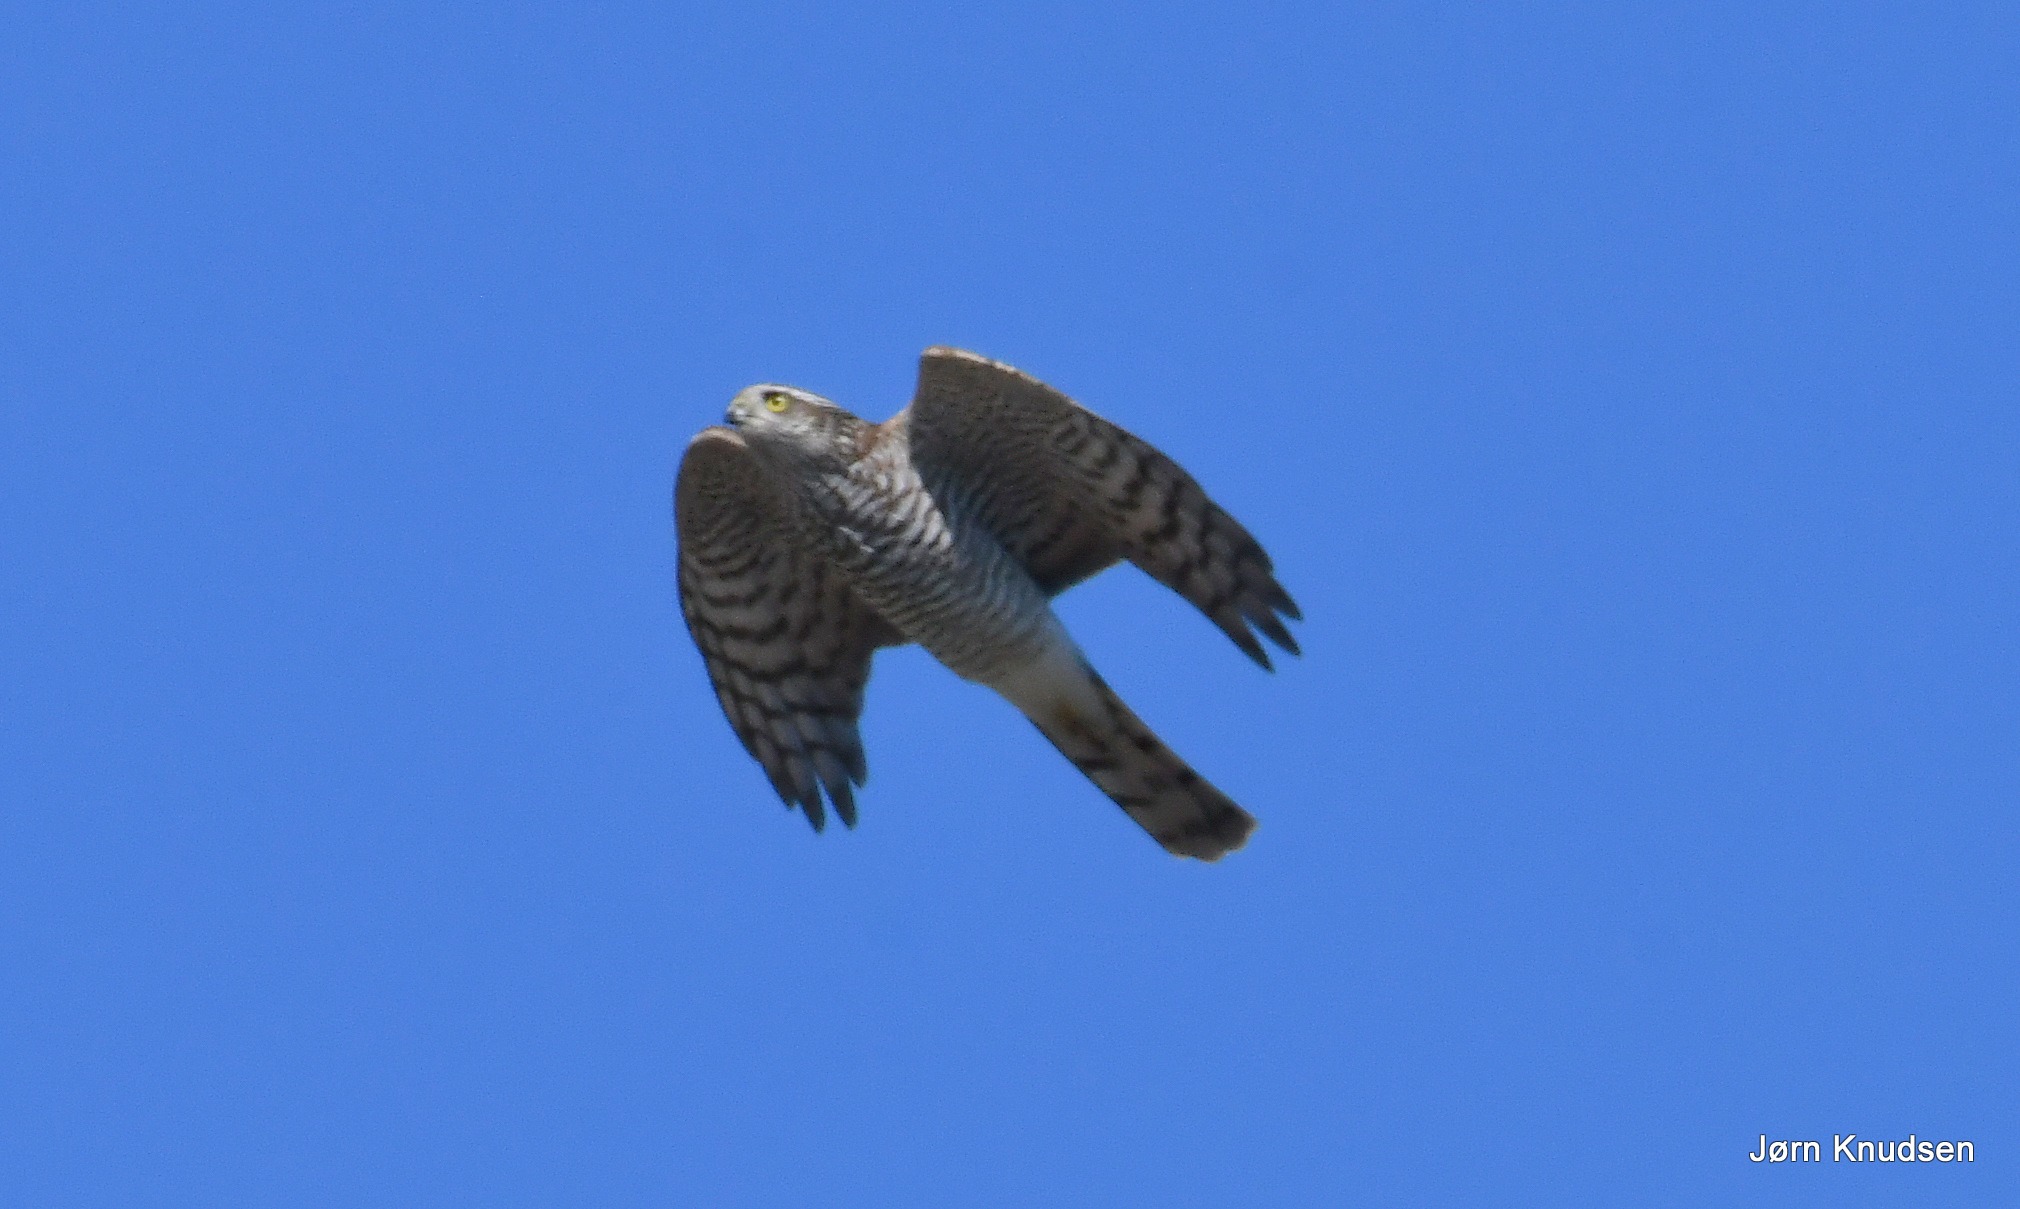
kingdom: Animalia
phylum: Chordata
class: Aves
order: Accipitriformes
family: Accipitridae
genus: Accipiter
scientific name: Accipiter nisus
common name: Spurvehøg
